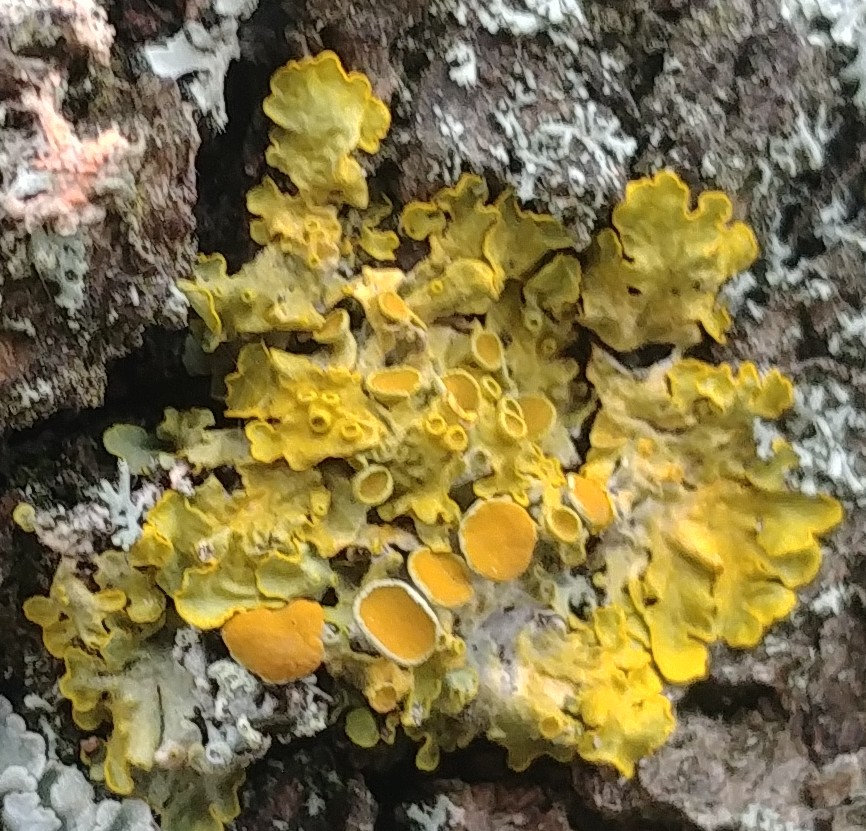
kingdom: Fungi
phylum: Ascomycota
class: Lecanoromycetes
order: Teloschistales
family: Teloschistaceae
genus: Xanthoria
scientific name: Xanthoria parietina
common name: almindelig væggelav
